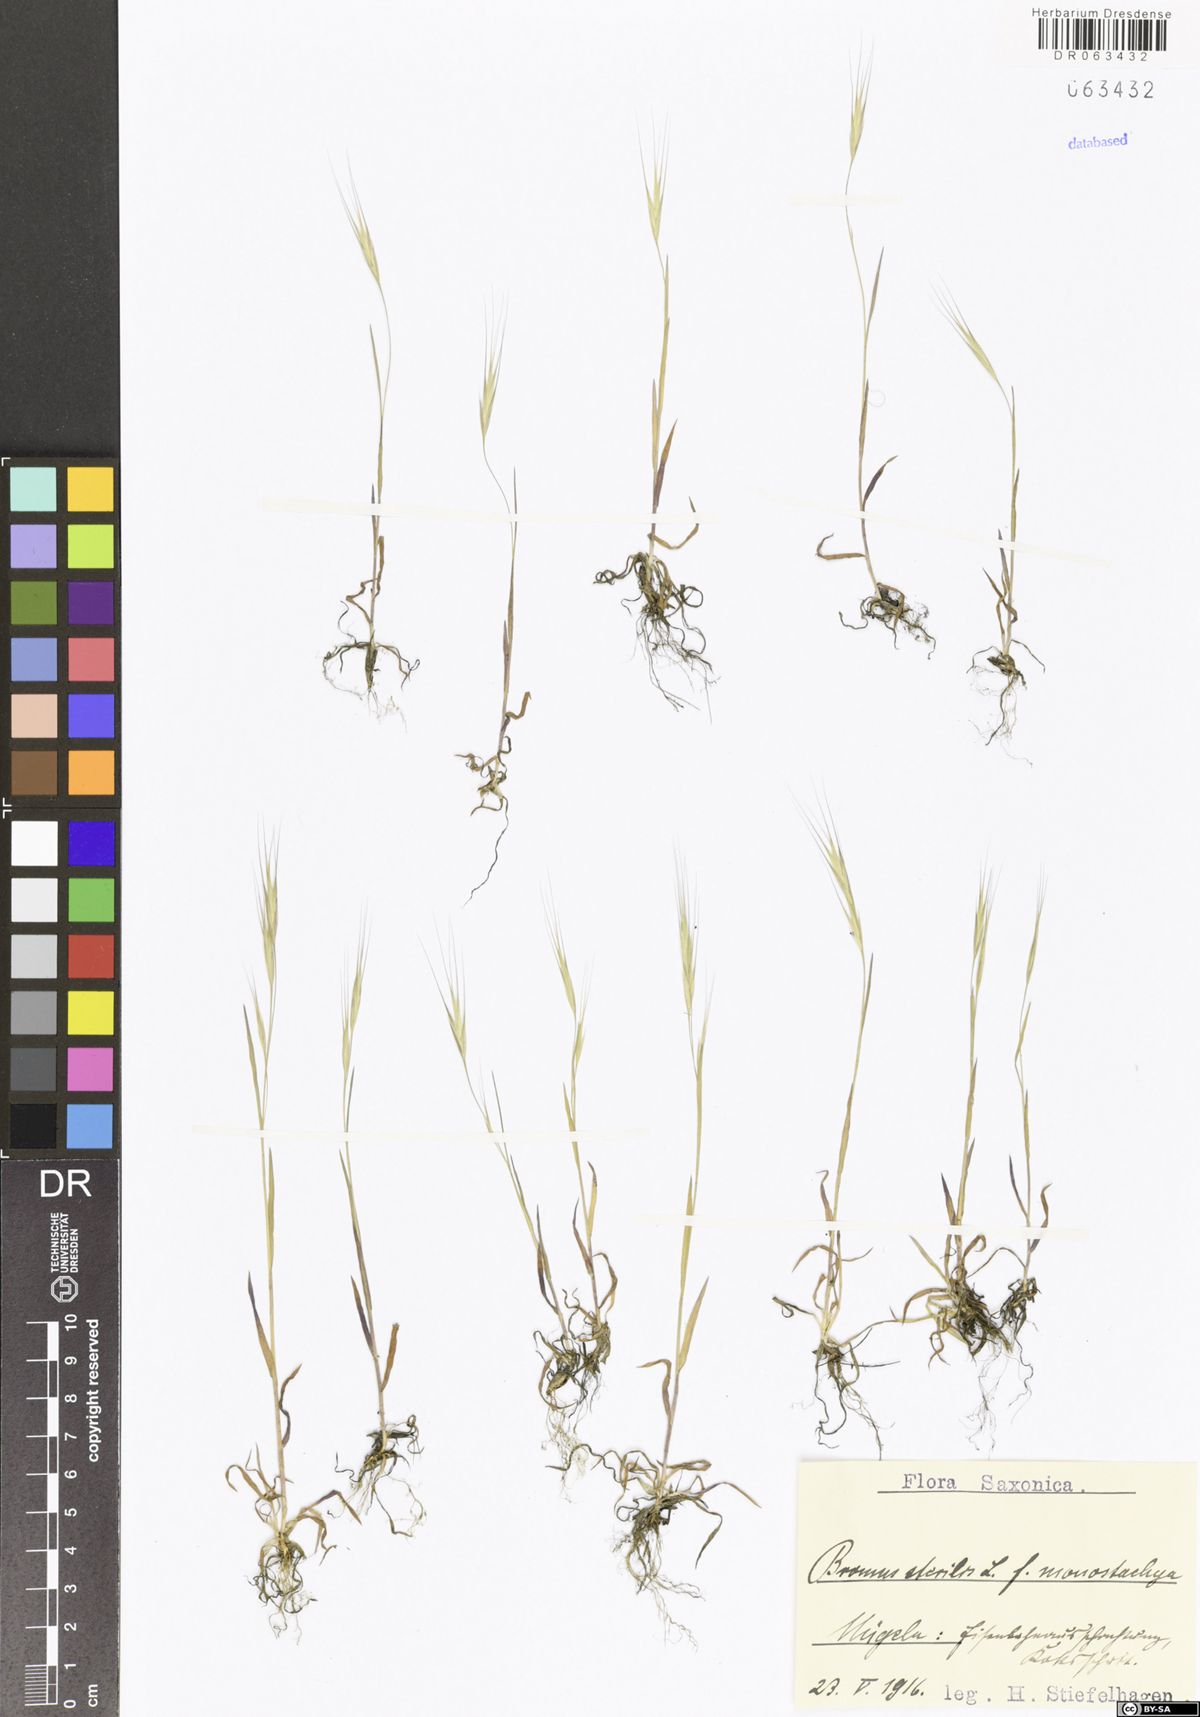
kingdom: Plantae
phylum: Tracheophyta
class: Liliopsida
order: Poales
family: Poaceae
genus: Bromus
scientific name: Bromus sterilis
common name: Poverty brome
